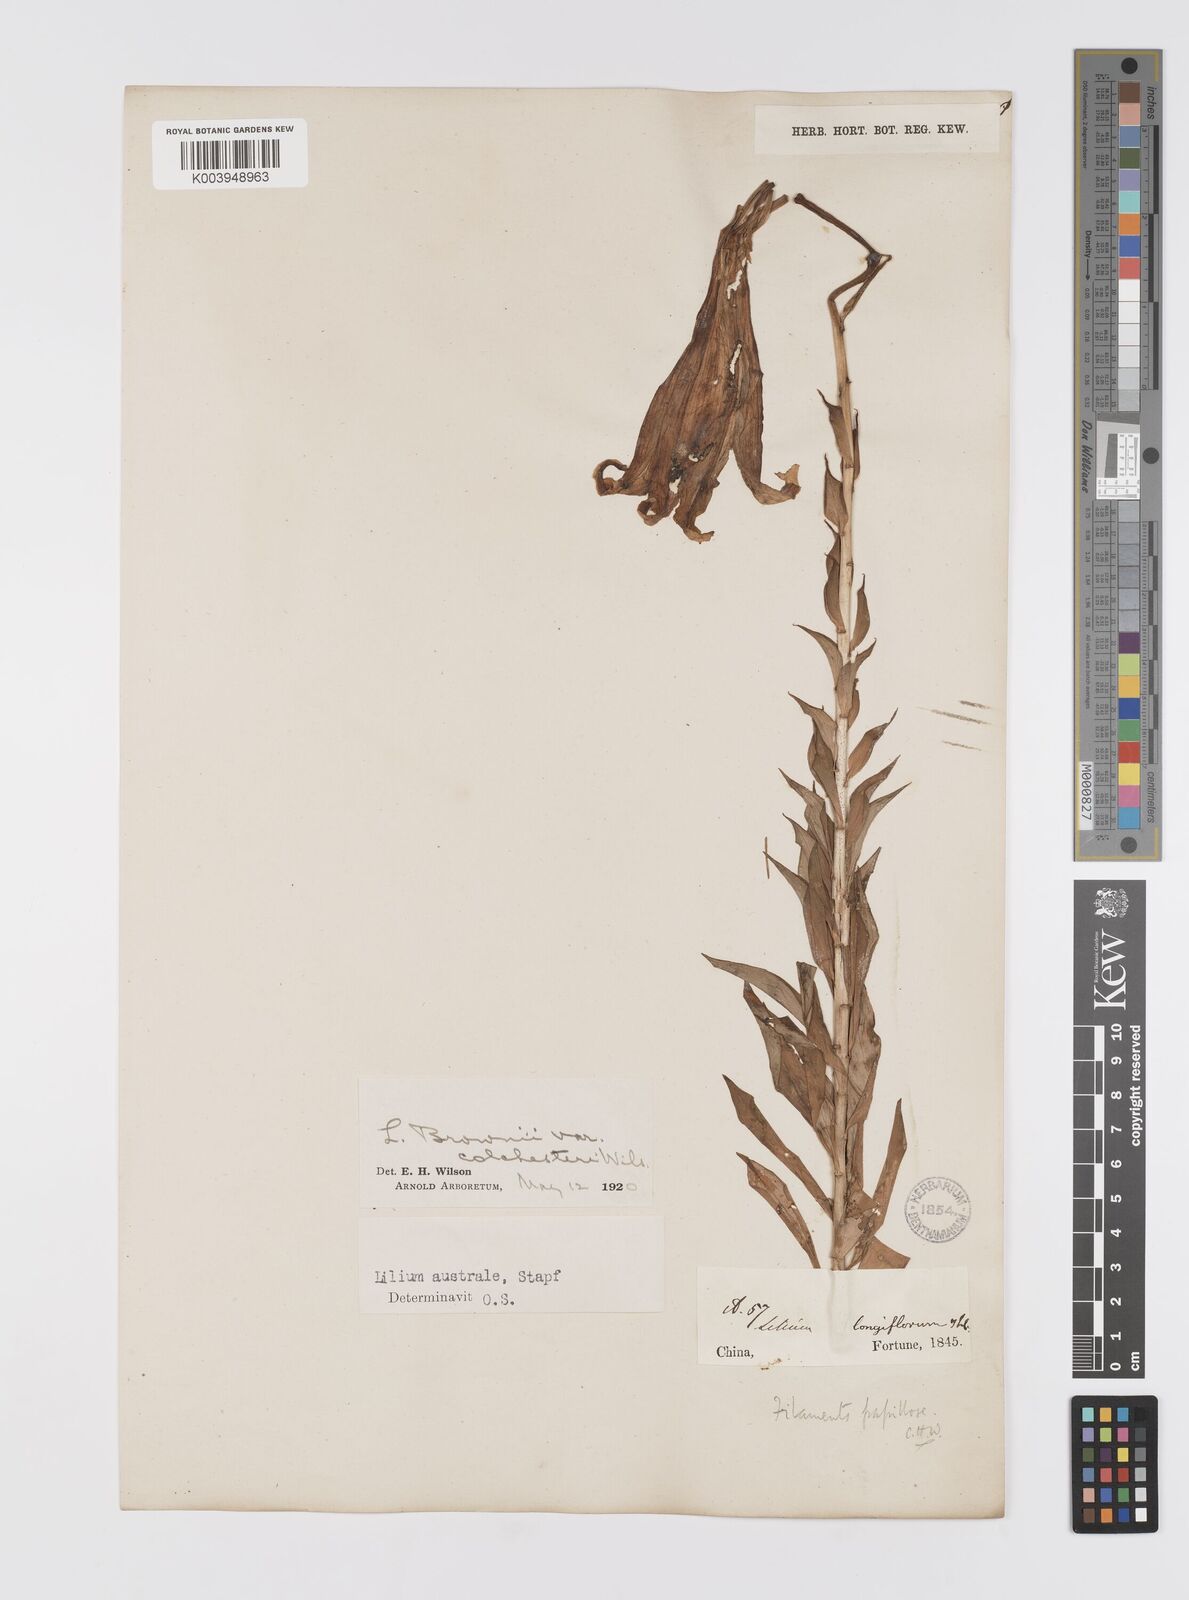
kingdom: Plantae
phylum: Tracheophyta
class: Liliopsida
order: Liliales
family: Liliaceae
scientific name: Liliaceae
